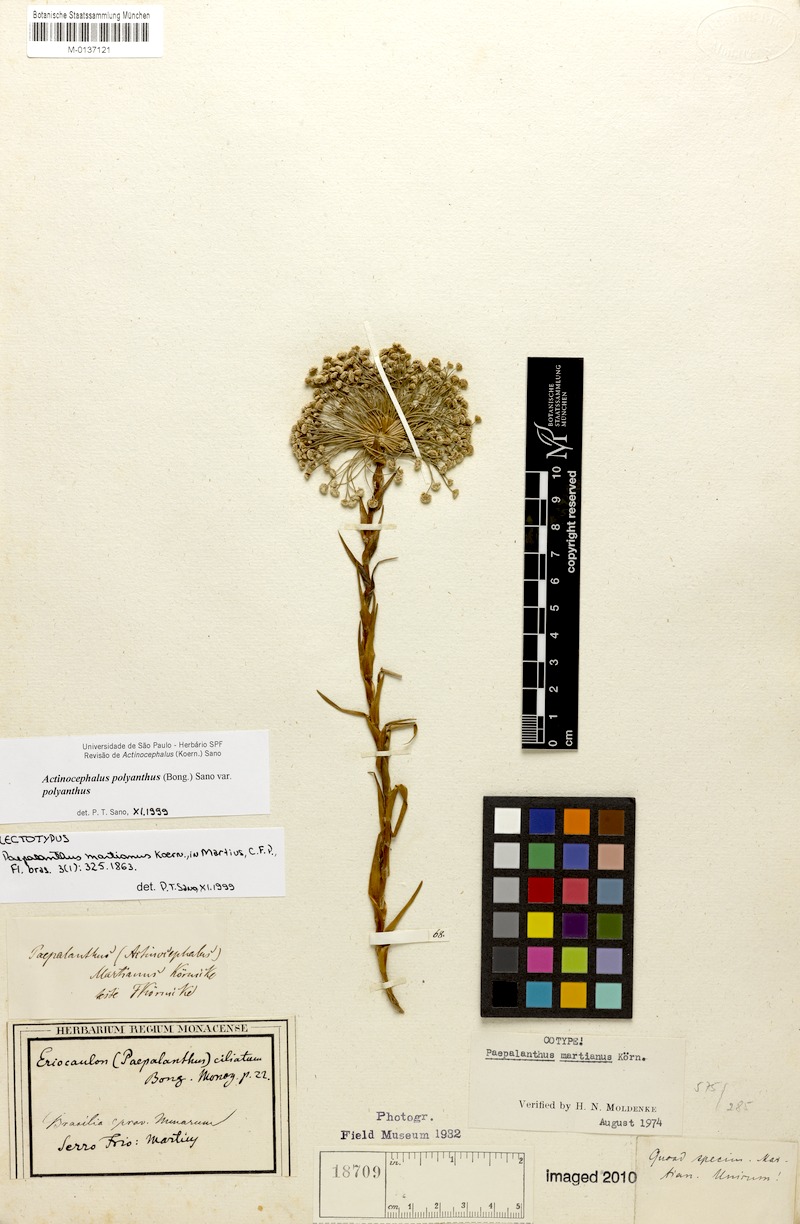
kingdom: Plantae
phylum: Tracheophyta
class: Liliopsida
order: Poales
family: Eriocaulaceae
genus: Paepalanthus
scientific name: Paepalanthus polyanthus
